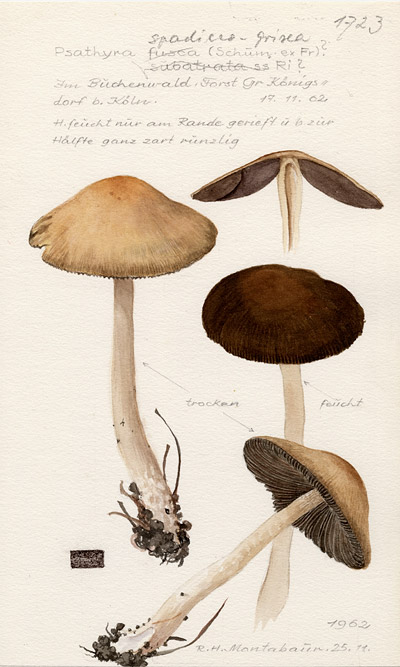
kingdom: Fungi
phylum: Basidiomycota
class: Agaricomycetes
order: Agaricales
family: Psathyrellaceae
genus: Psathyrella
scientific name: Psathyrella spadiceogrisea
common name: Spring brittlestem
